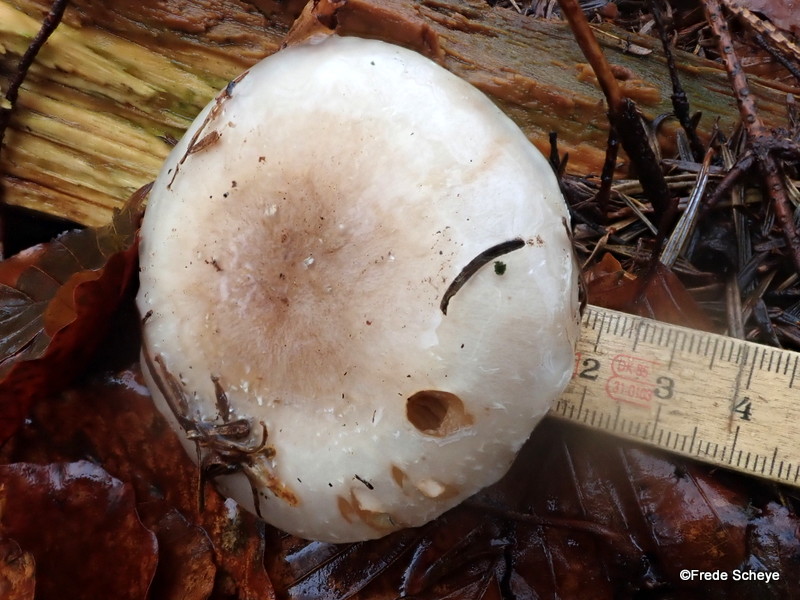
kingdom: Fungi
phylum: Basidiomycota
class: Agaricomycetes
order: Agaricales
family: Strophariaceae
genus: Pholiota
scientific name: Pholiota lenta
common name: løv-skælhat
